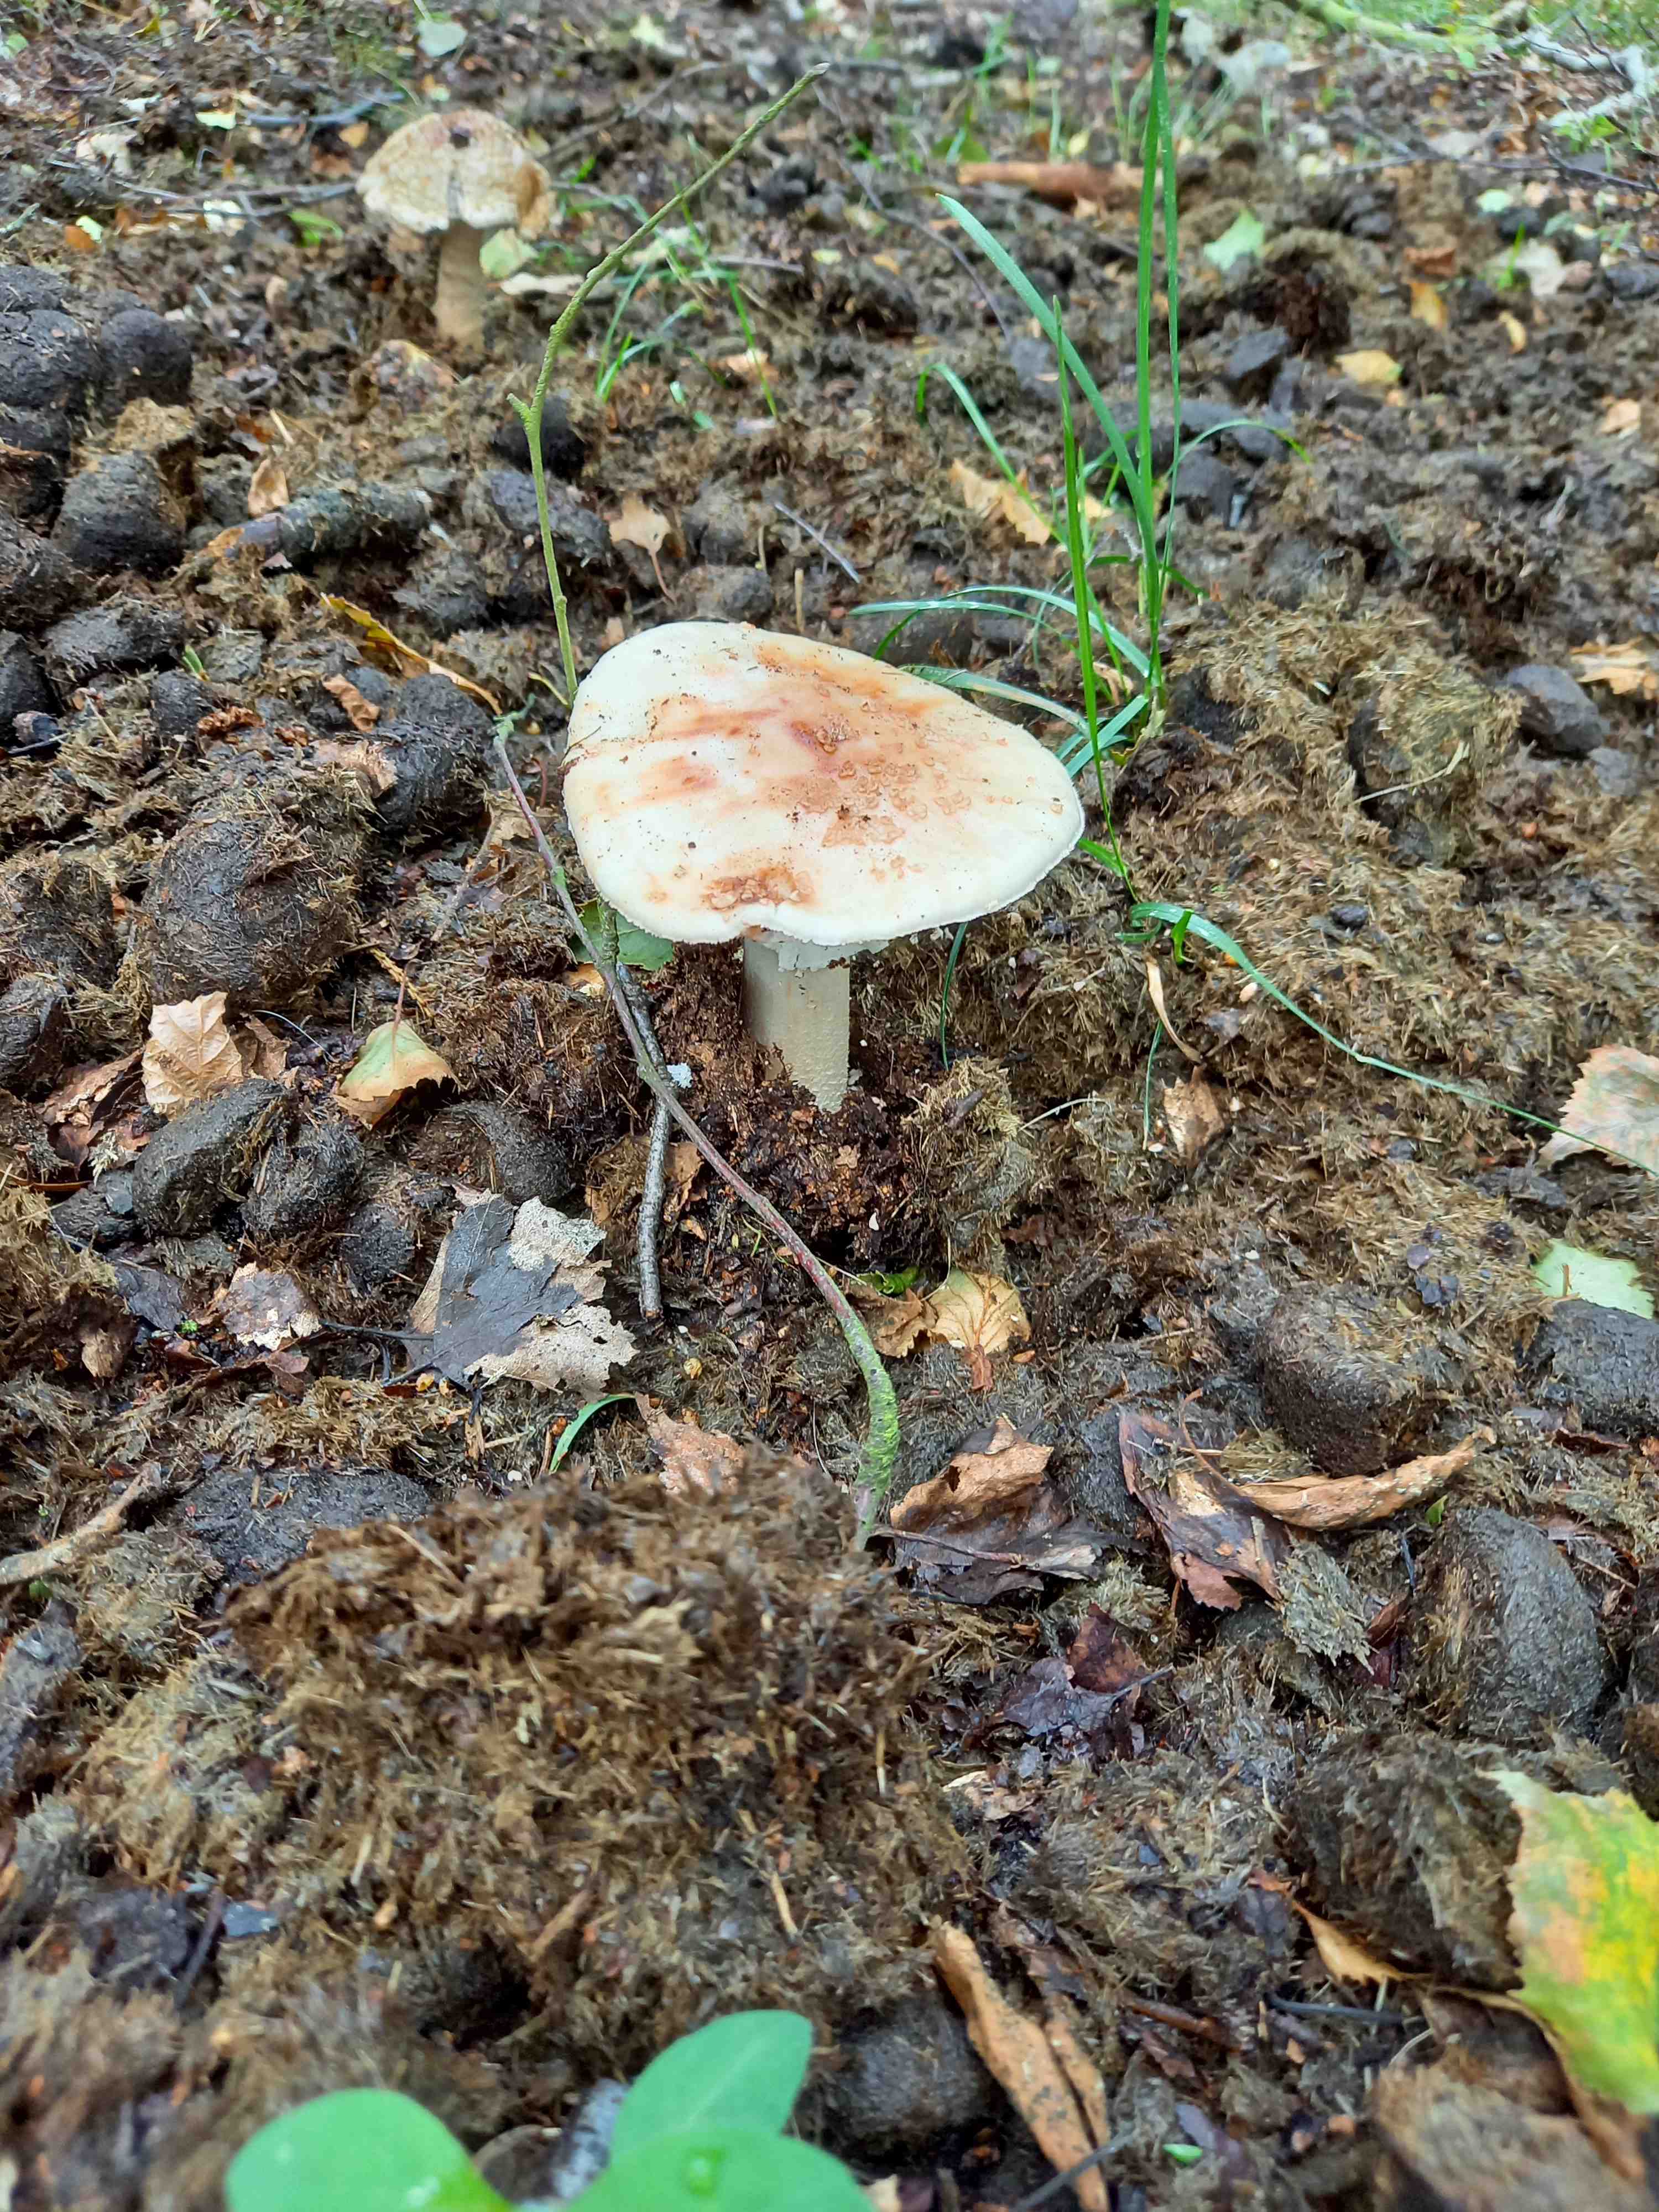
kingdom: Fungi
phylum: Basidiomycota
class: Agaricomycetes
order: Agaricales
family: Amanitaceae
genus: Amanita
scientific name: Amanita rubescens
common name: rødmende fluesvamp
